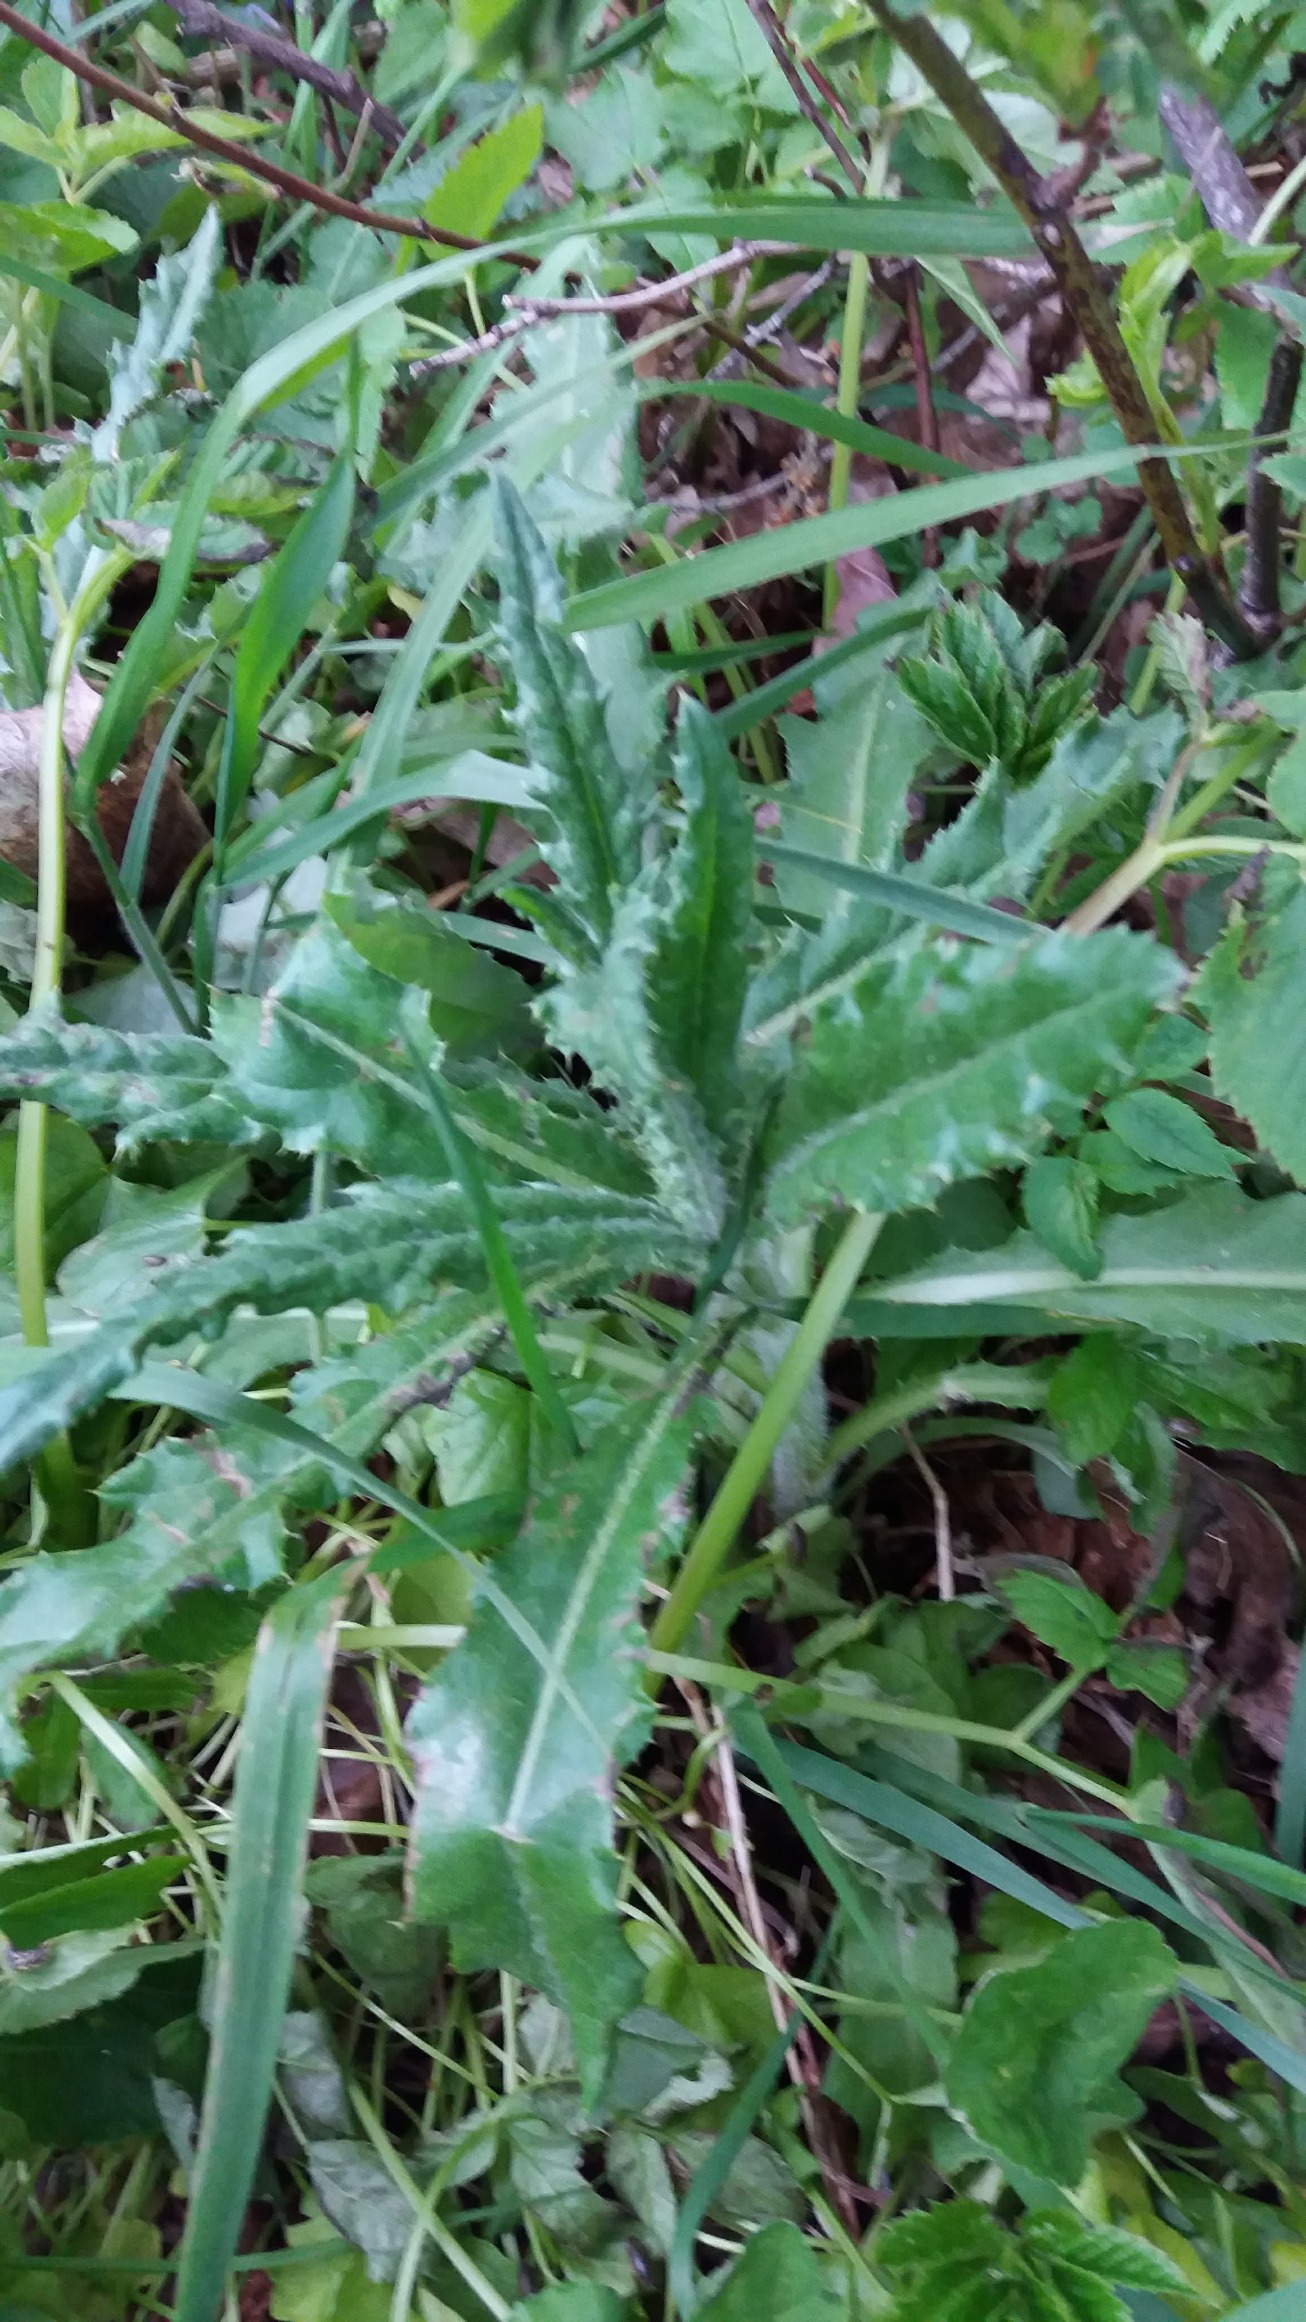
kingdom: Plantae
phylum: Tracheophyta
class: Magnoliopsida
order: Asterales
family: Asteraceae
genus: Cirsium
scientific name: Cirsium arvense
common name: Ager-tidsel
